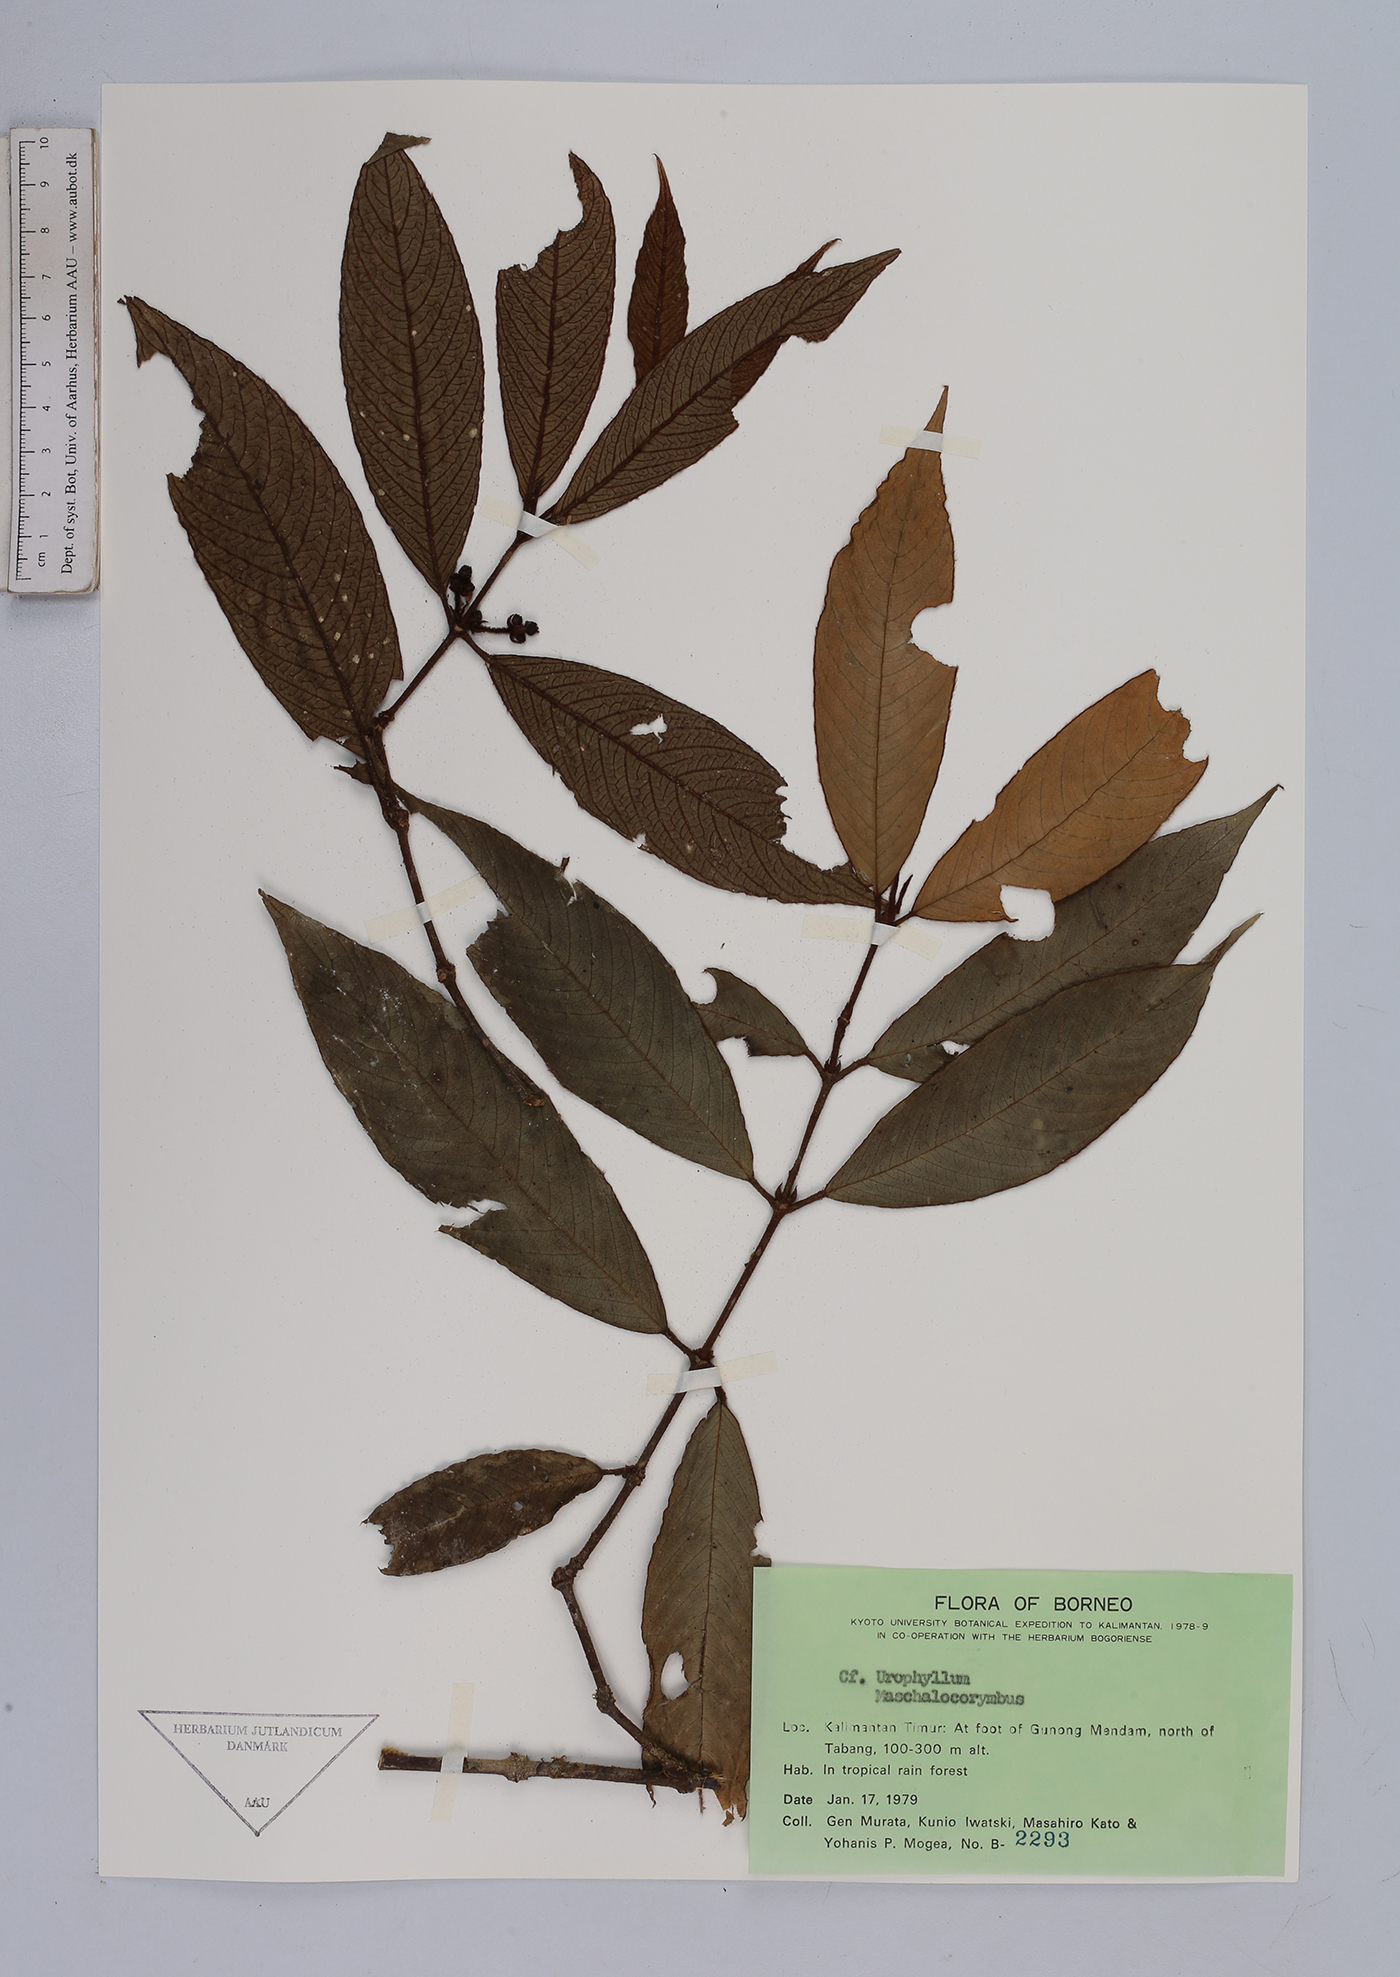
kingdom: Plantae
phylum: Tracheophyta
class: Magnoliopsida
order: Gentianales
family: Rubiaceae
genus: Urophyllum
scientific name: Urophyllum
